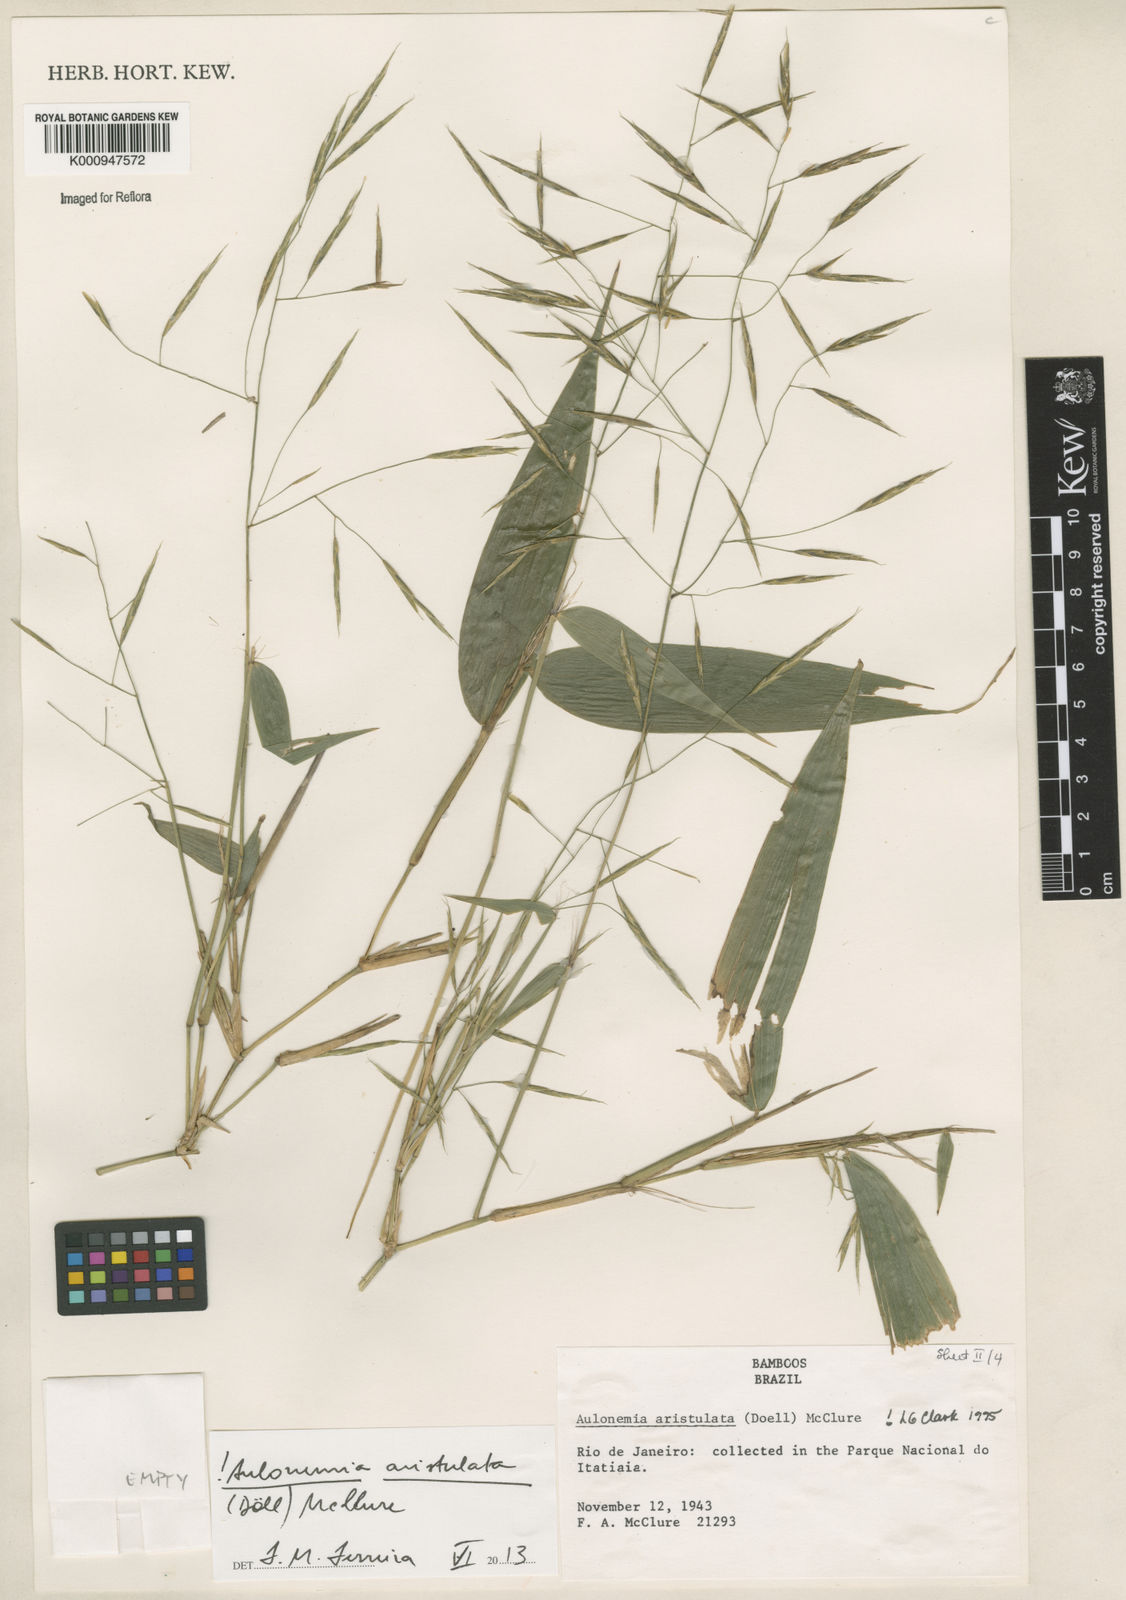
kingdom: Plantae
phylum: Tracheophyta
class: Liliopsida
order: Poales
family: Poaceae
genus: Aulonemia
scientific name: Aulonemia
